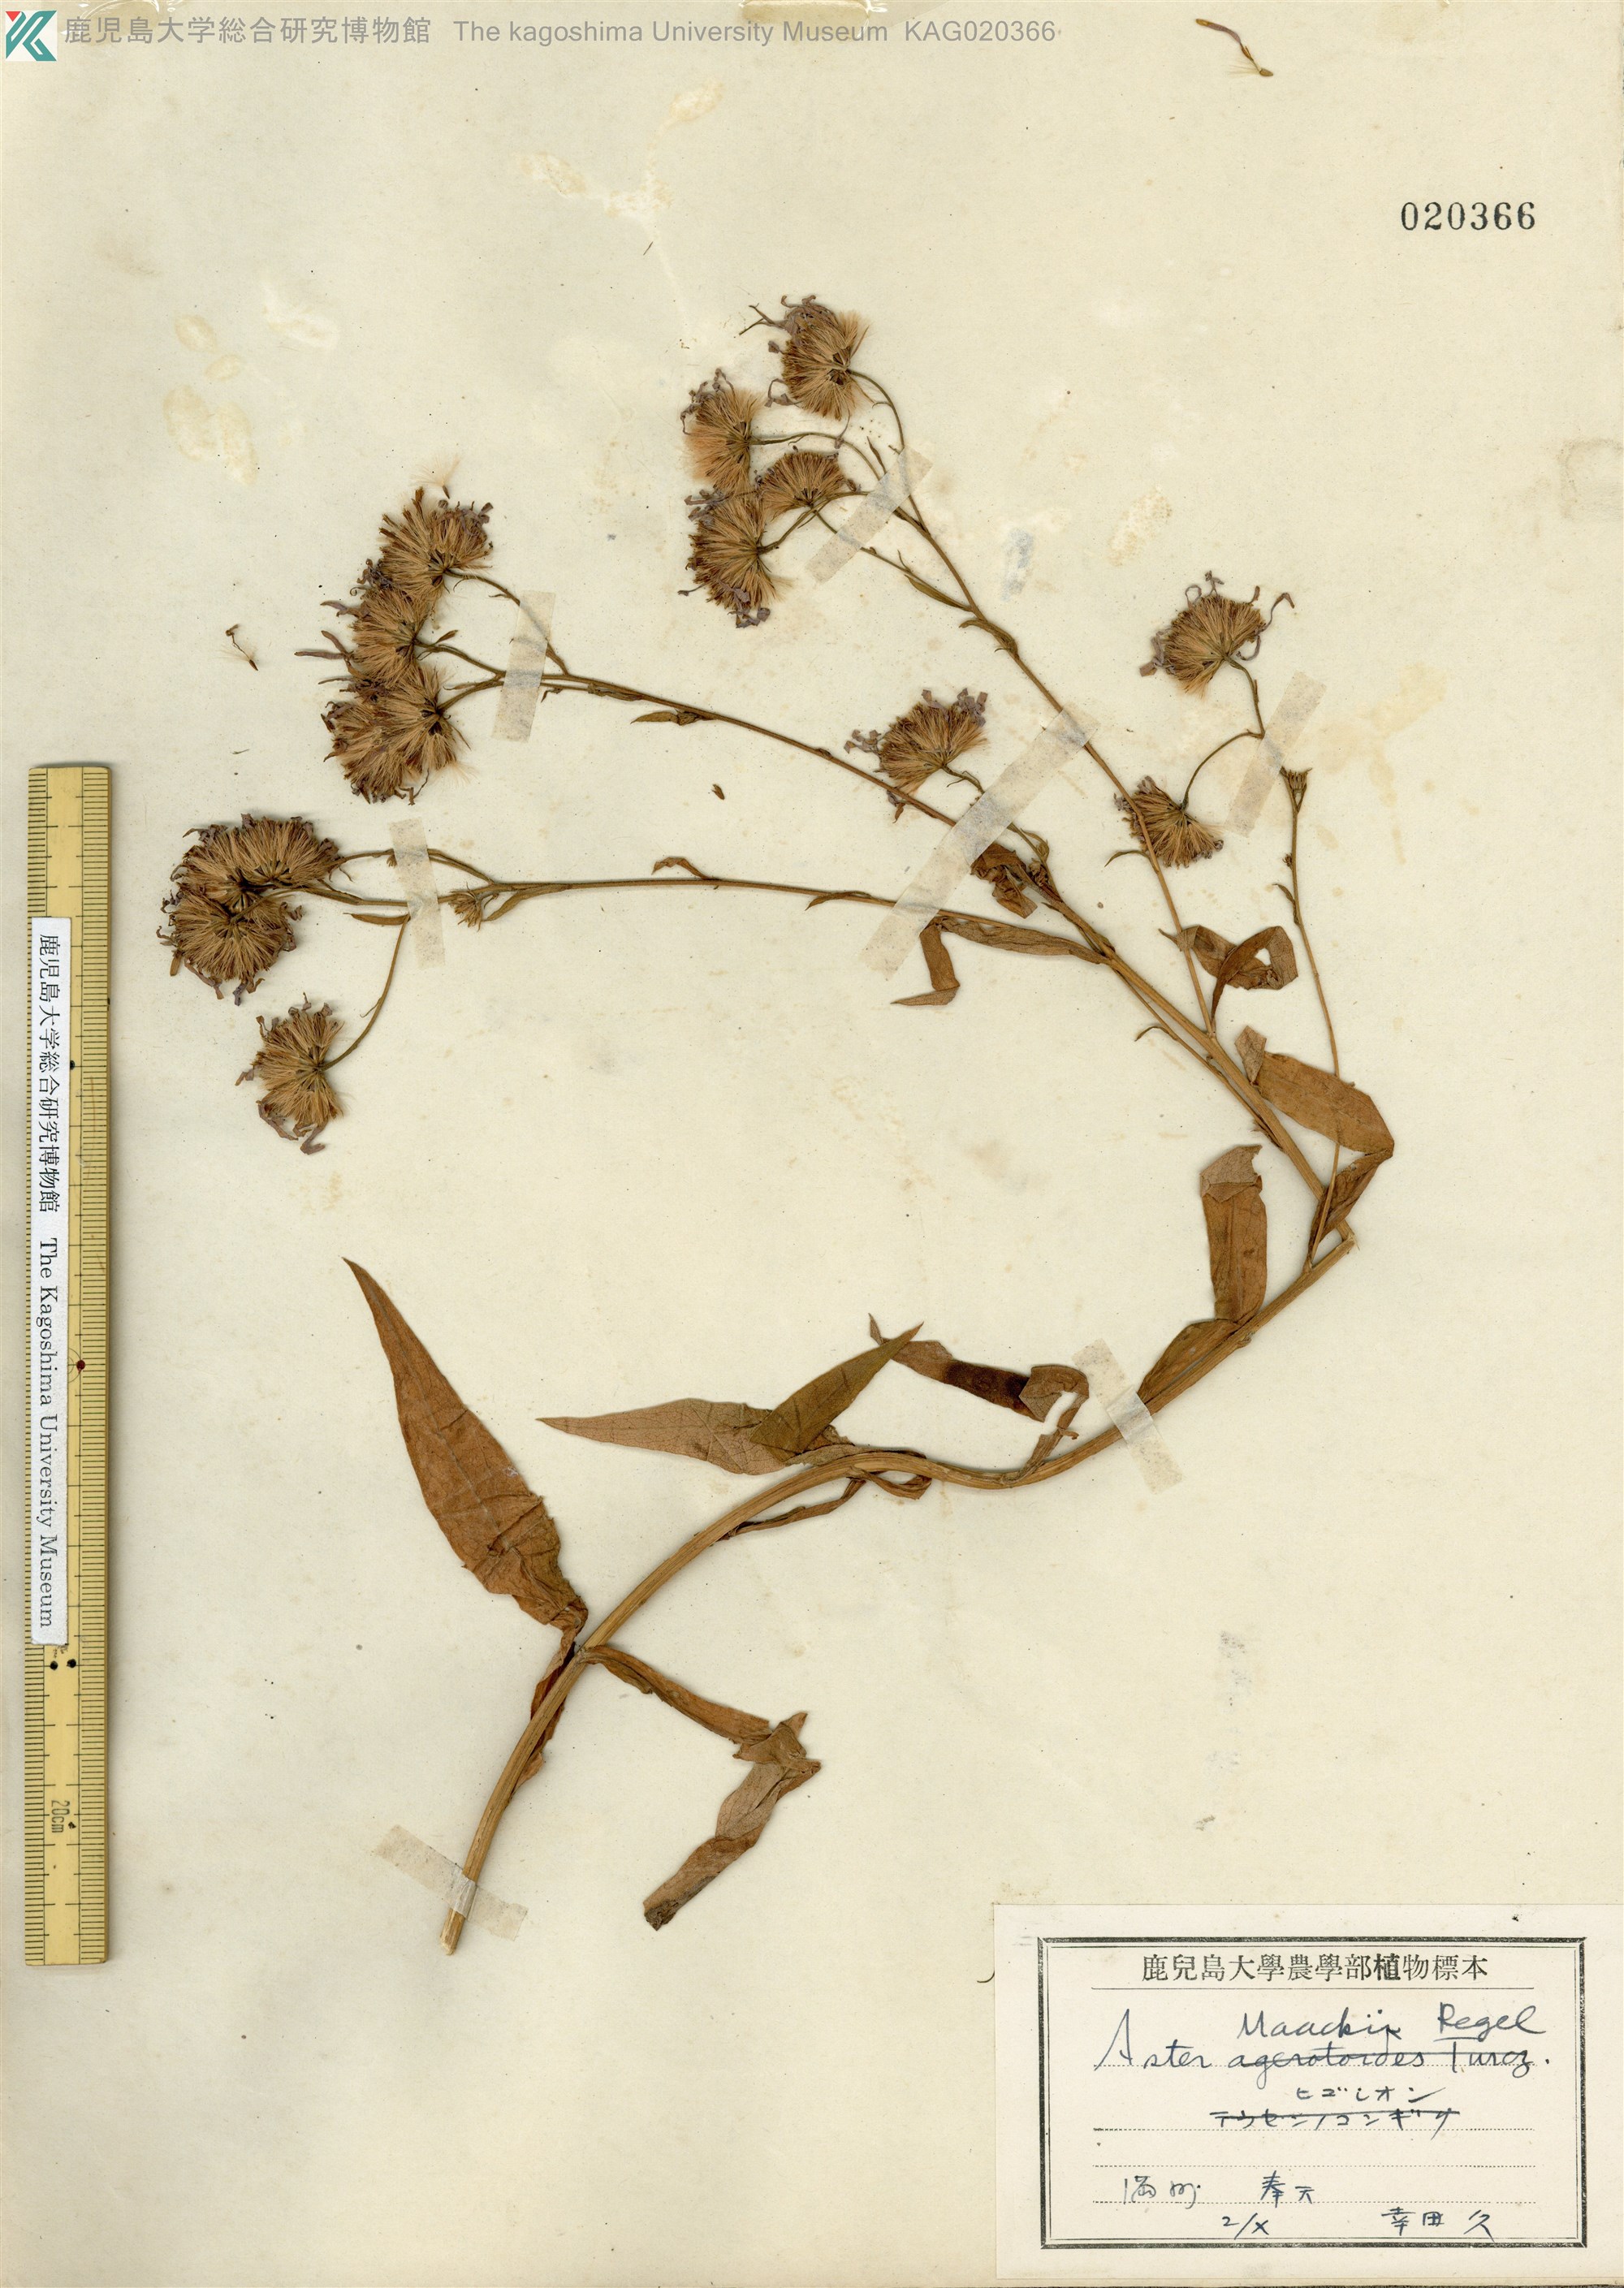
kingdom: Plantae
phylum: Tracheophyta
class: Magnoliopsida
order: Asterales
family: Asteraceae
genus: Aster
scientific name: Aster maackii
